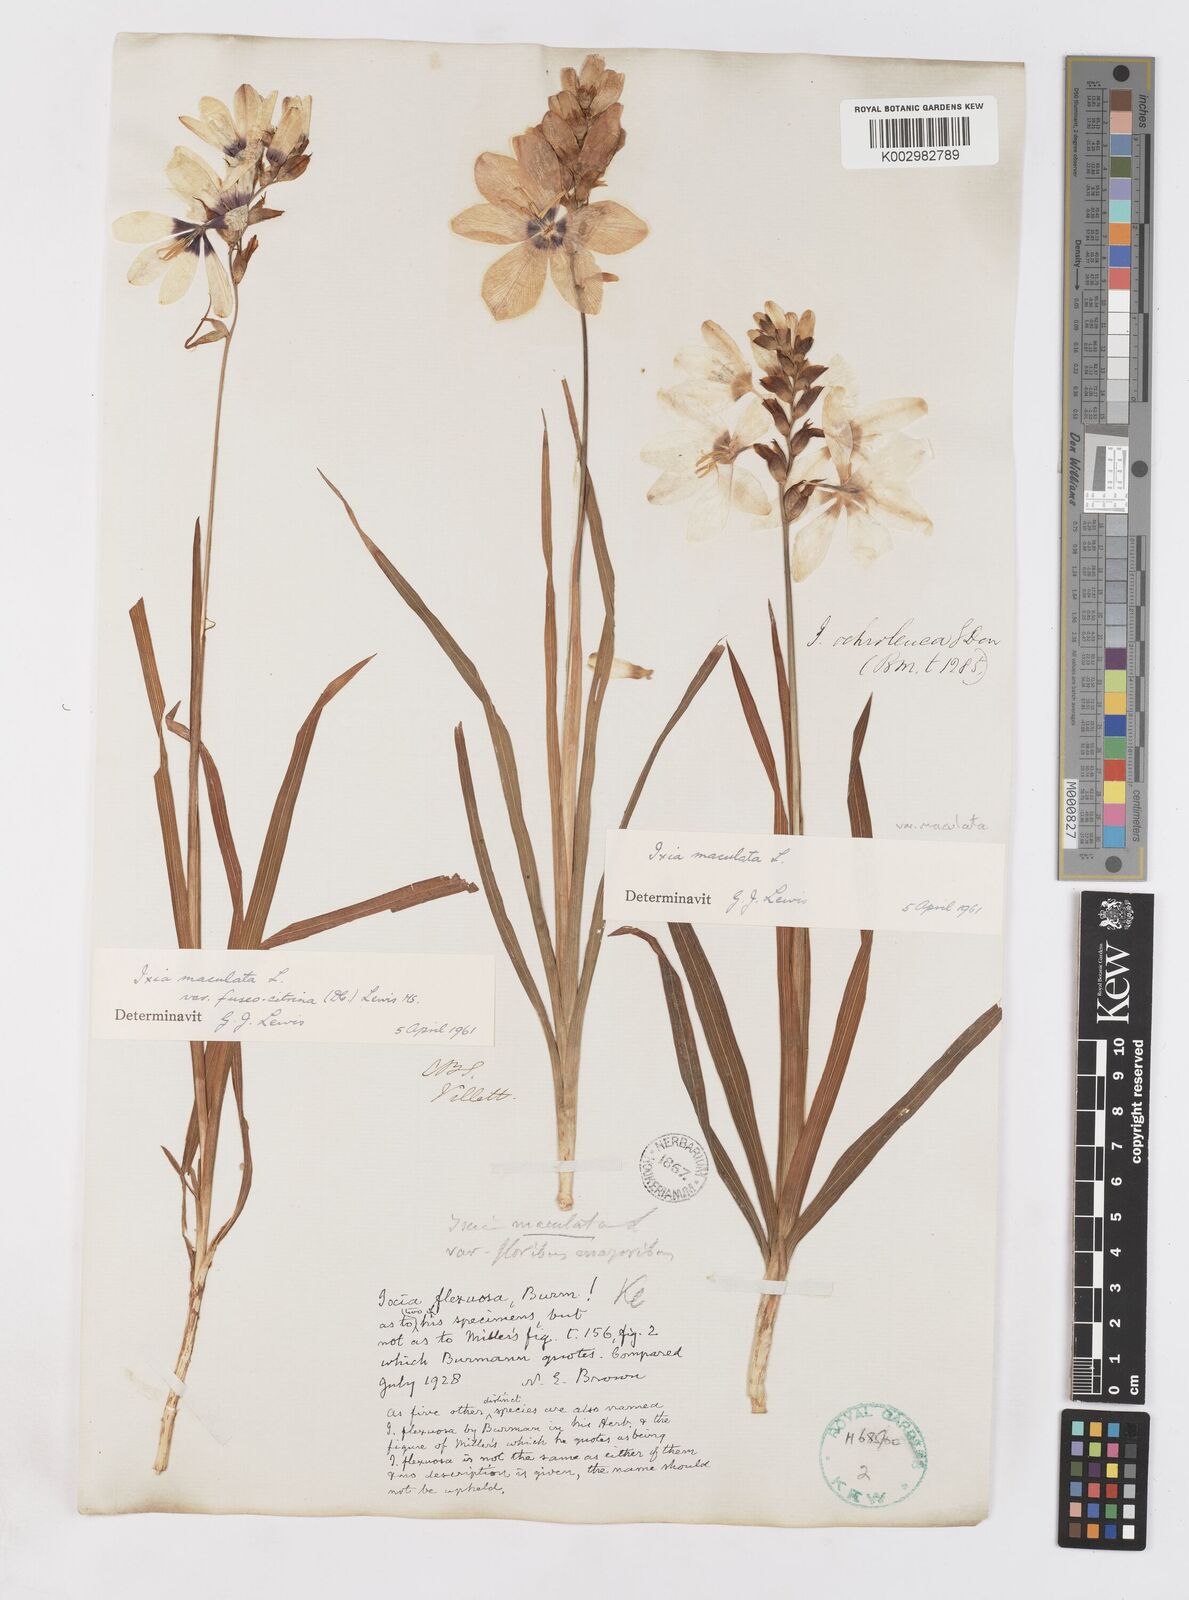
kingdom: Plantae
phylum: Tracheophyta
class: Liliopsida
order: Asparagales
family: Iridaceae
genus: Ixia
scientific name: Ixia fuscocitrina
